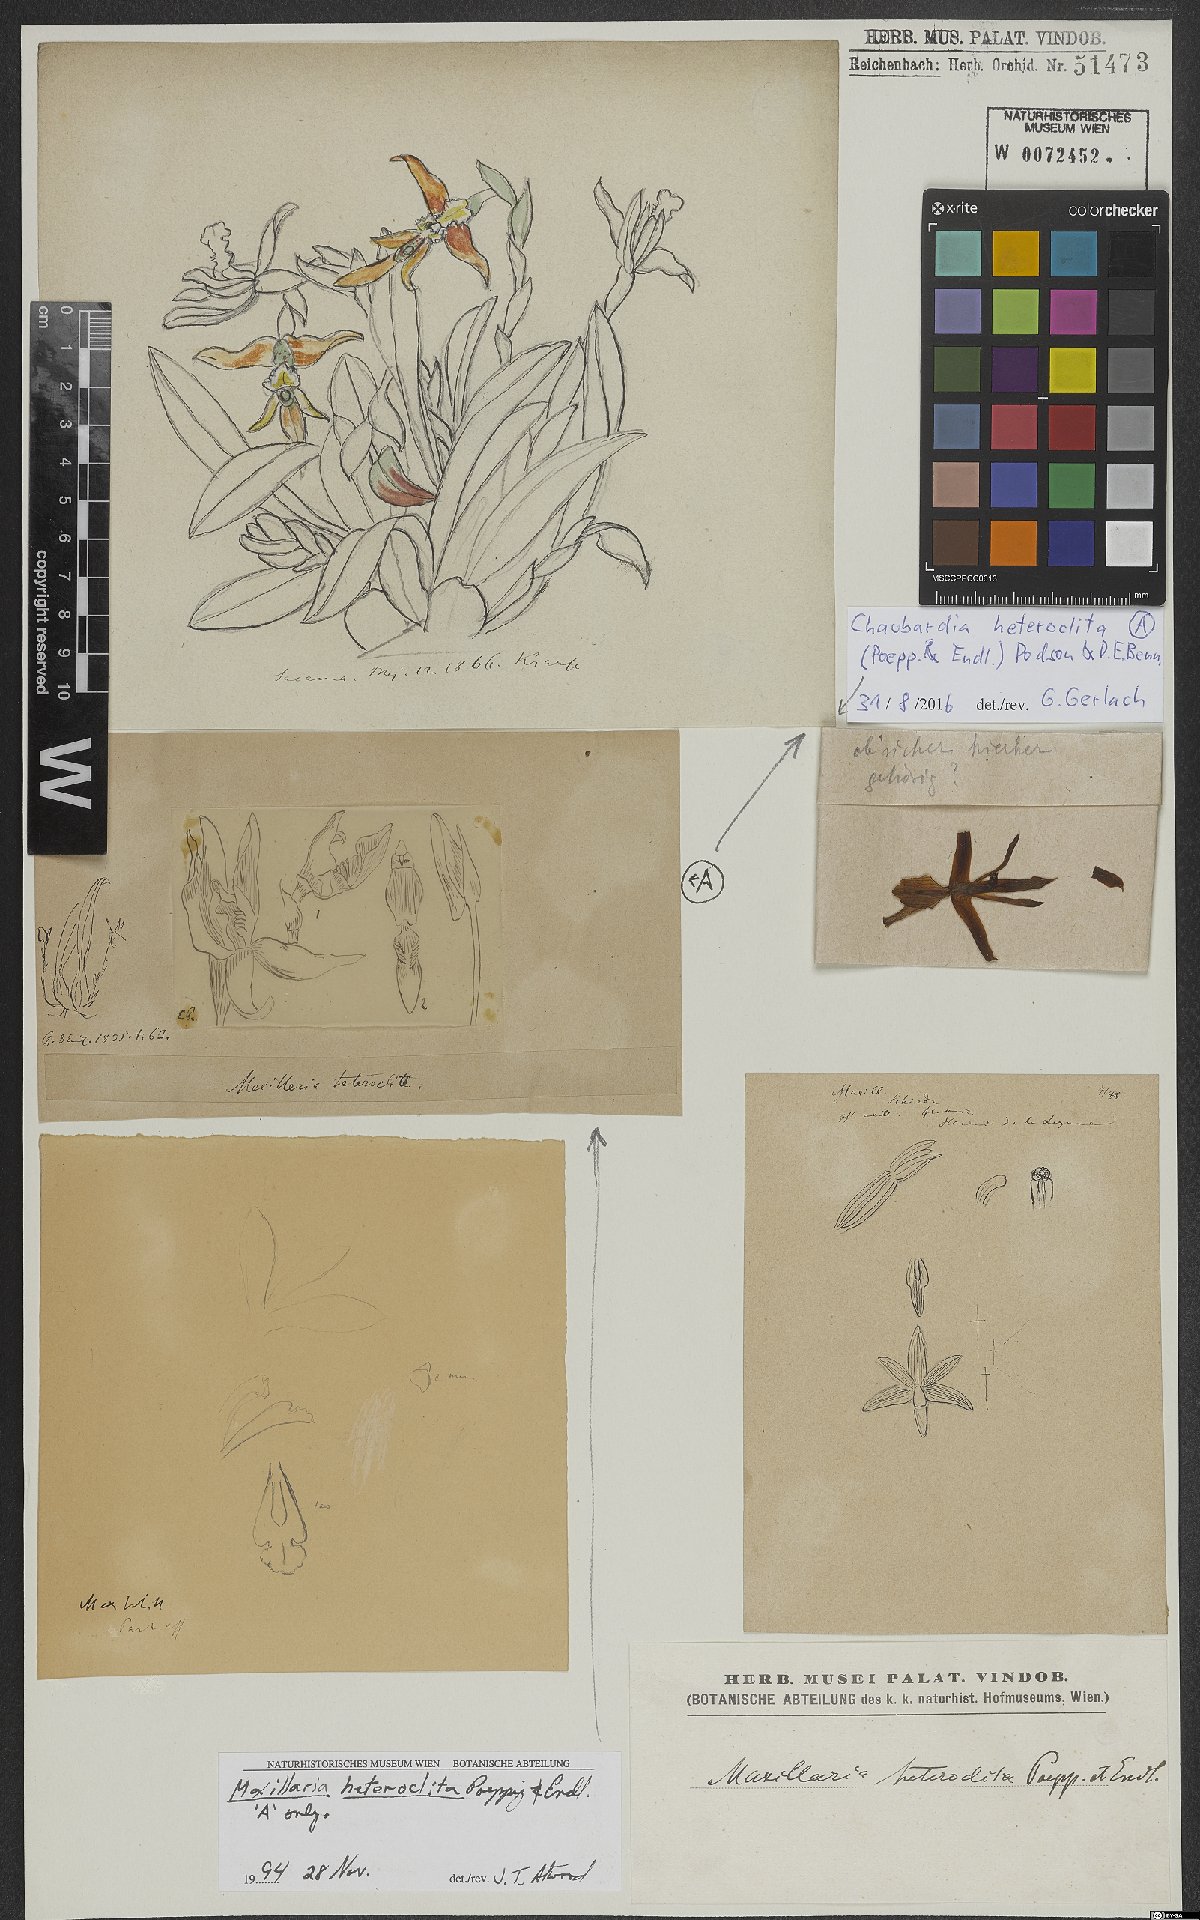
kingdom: Plantae
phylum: Tracheophyta
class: Liliopsida
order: Asparagales
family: Orchidaceae
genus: Maxillaria
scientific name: Maxillaria
